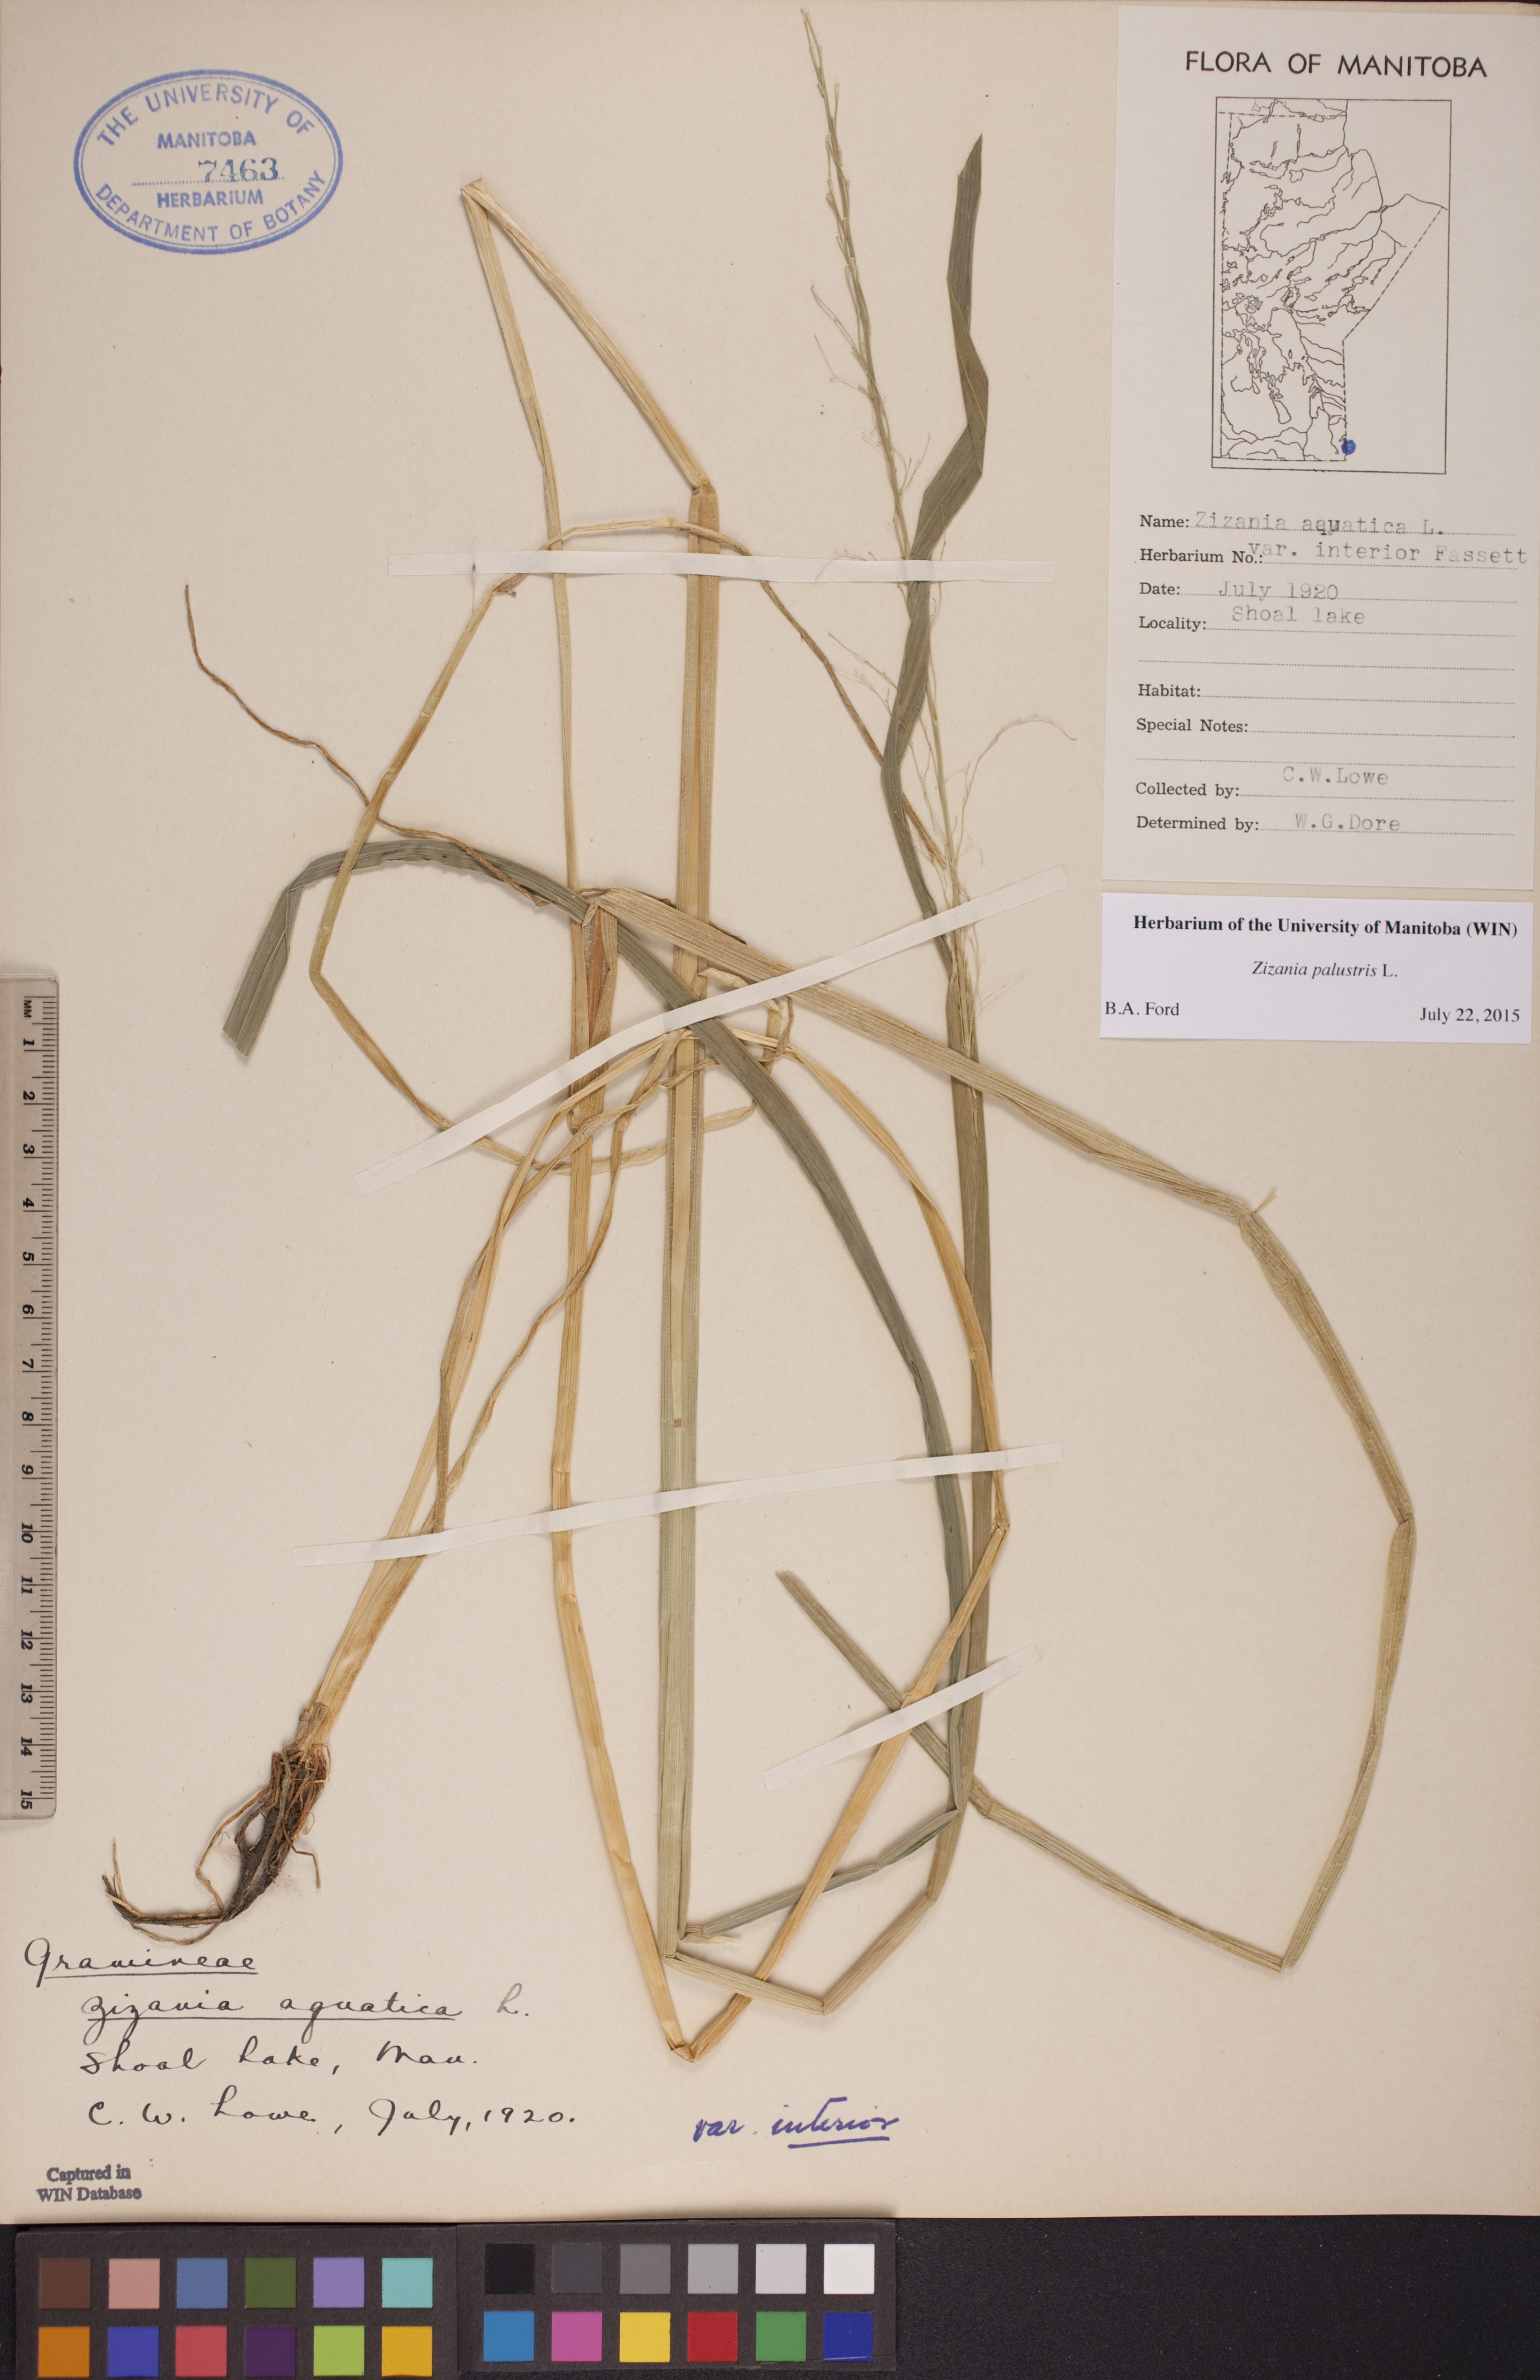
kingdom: Plantae
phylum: Tracheophyta
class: Liliopsida
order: Poales
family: Poaceae
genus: Zizania
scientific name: Zizania palustris
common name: Northern wild rice
